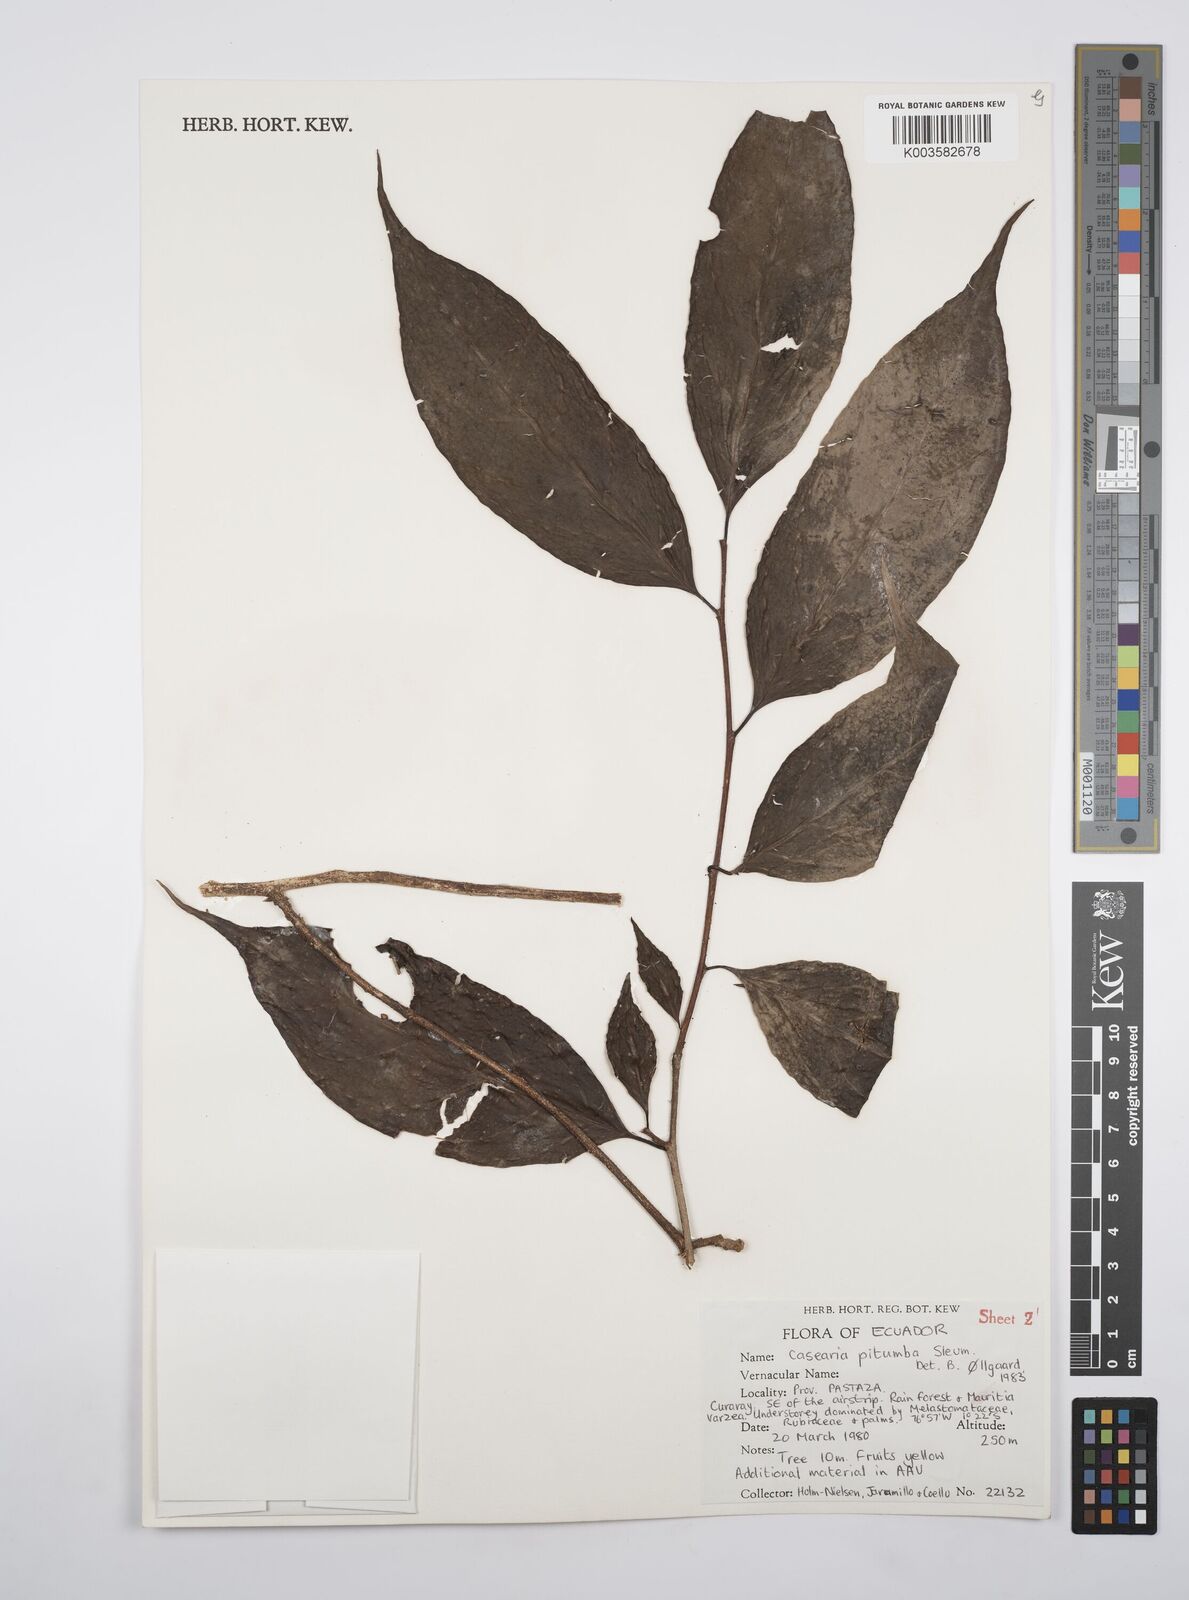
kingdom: Plantae
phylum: Tracheophyta
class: Magnoliopsida
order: Malpighiales
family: Salicaceae
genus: Casearia
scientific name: Casearia pitumba
